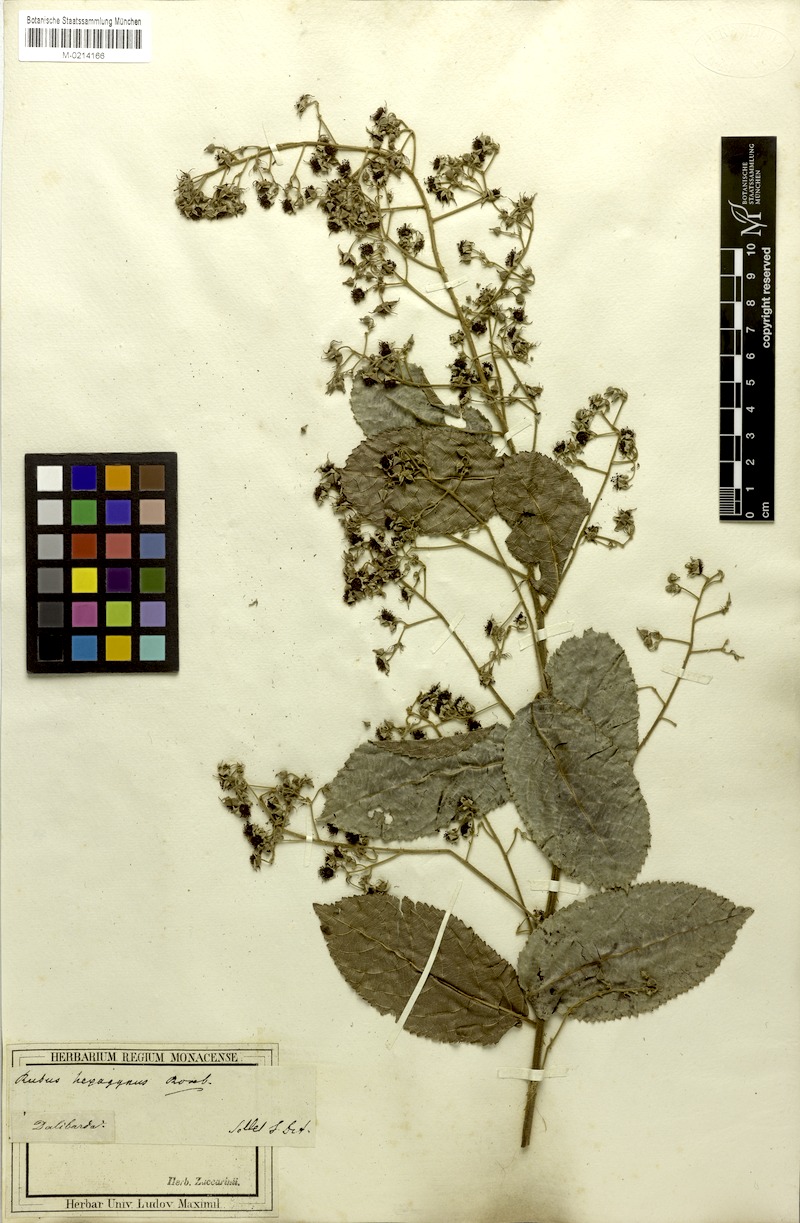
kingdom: Plantae
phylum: Tracheophyta
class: Magnoliopsida
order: Rosales
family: Rosaceae
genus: Rubus
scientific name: Rubus hexagynus
